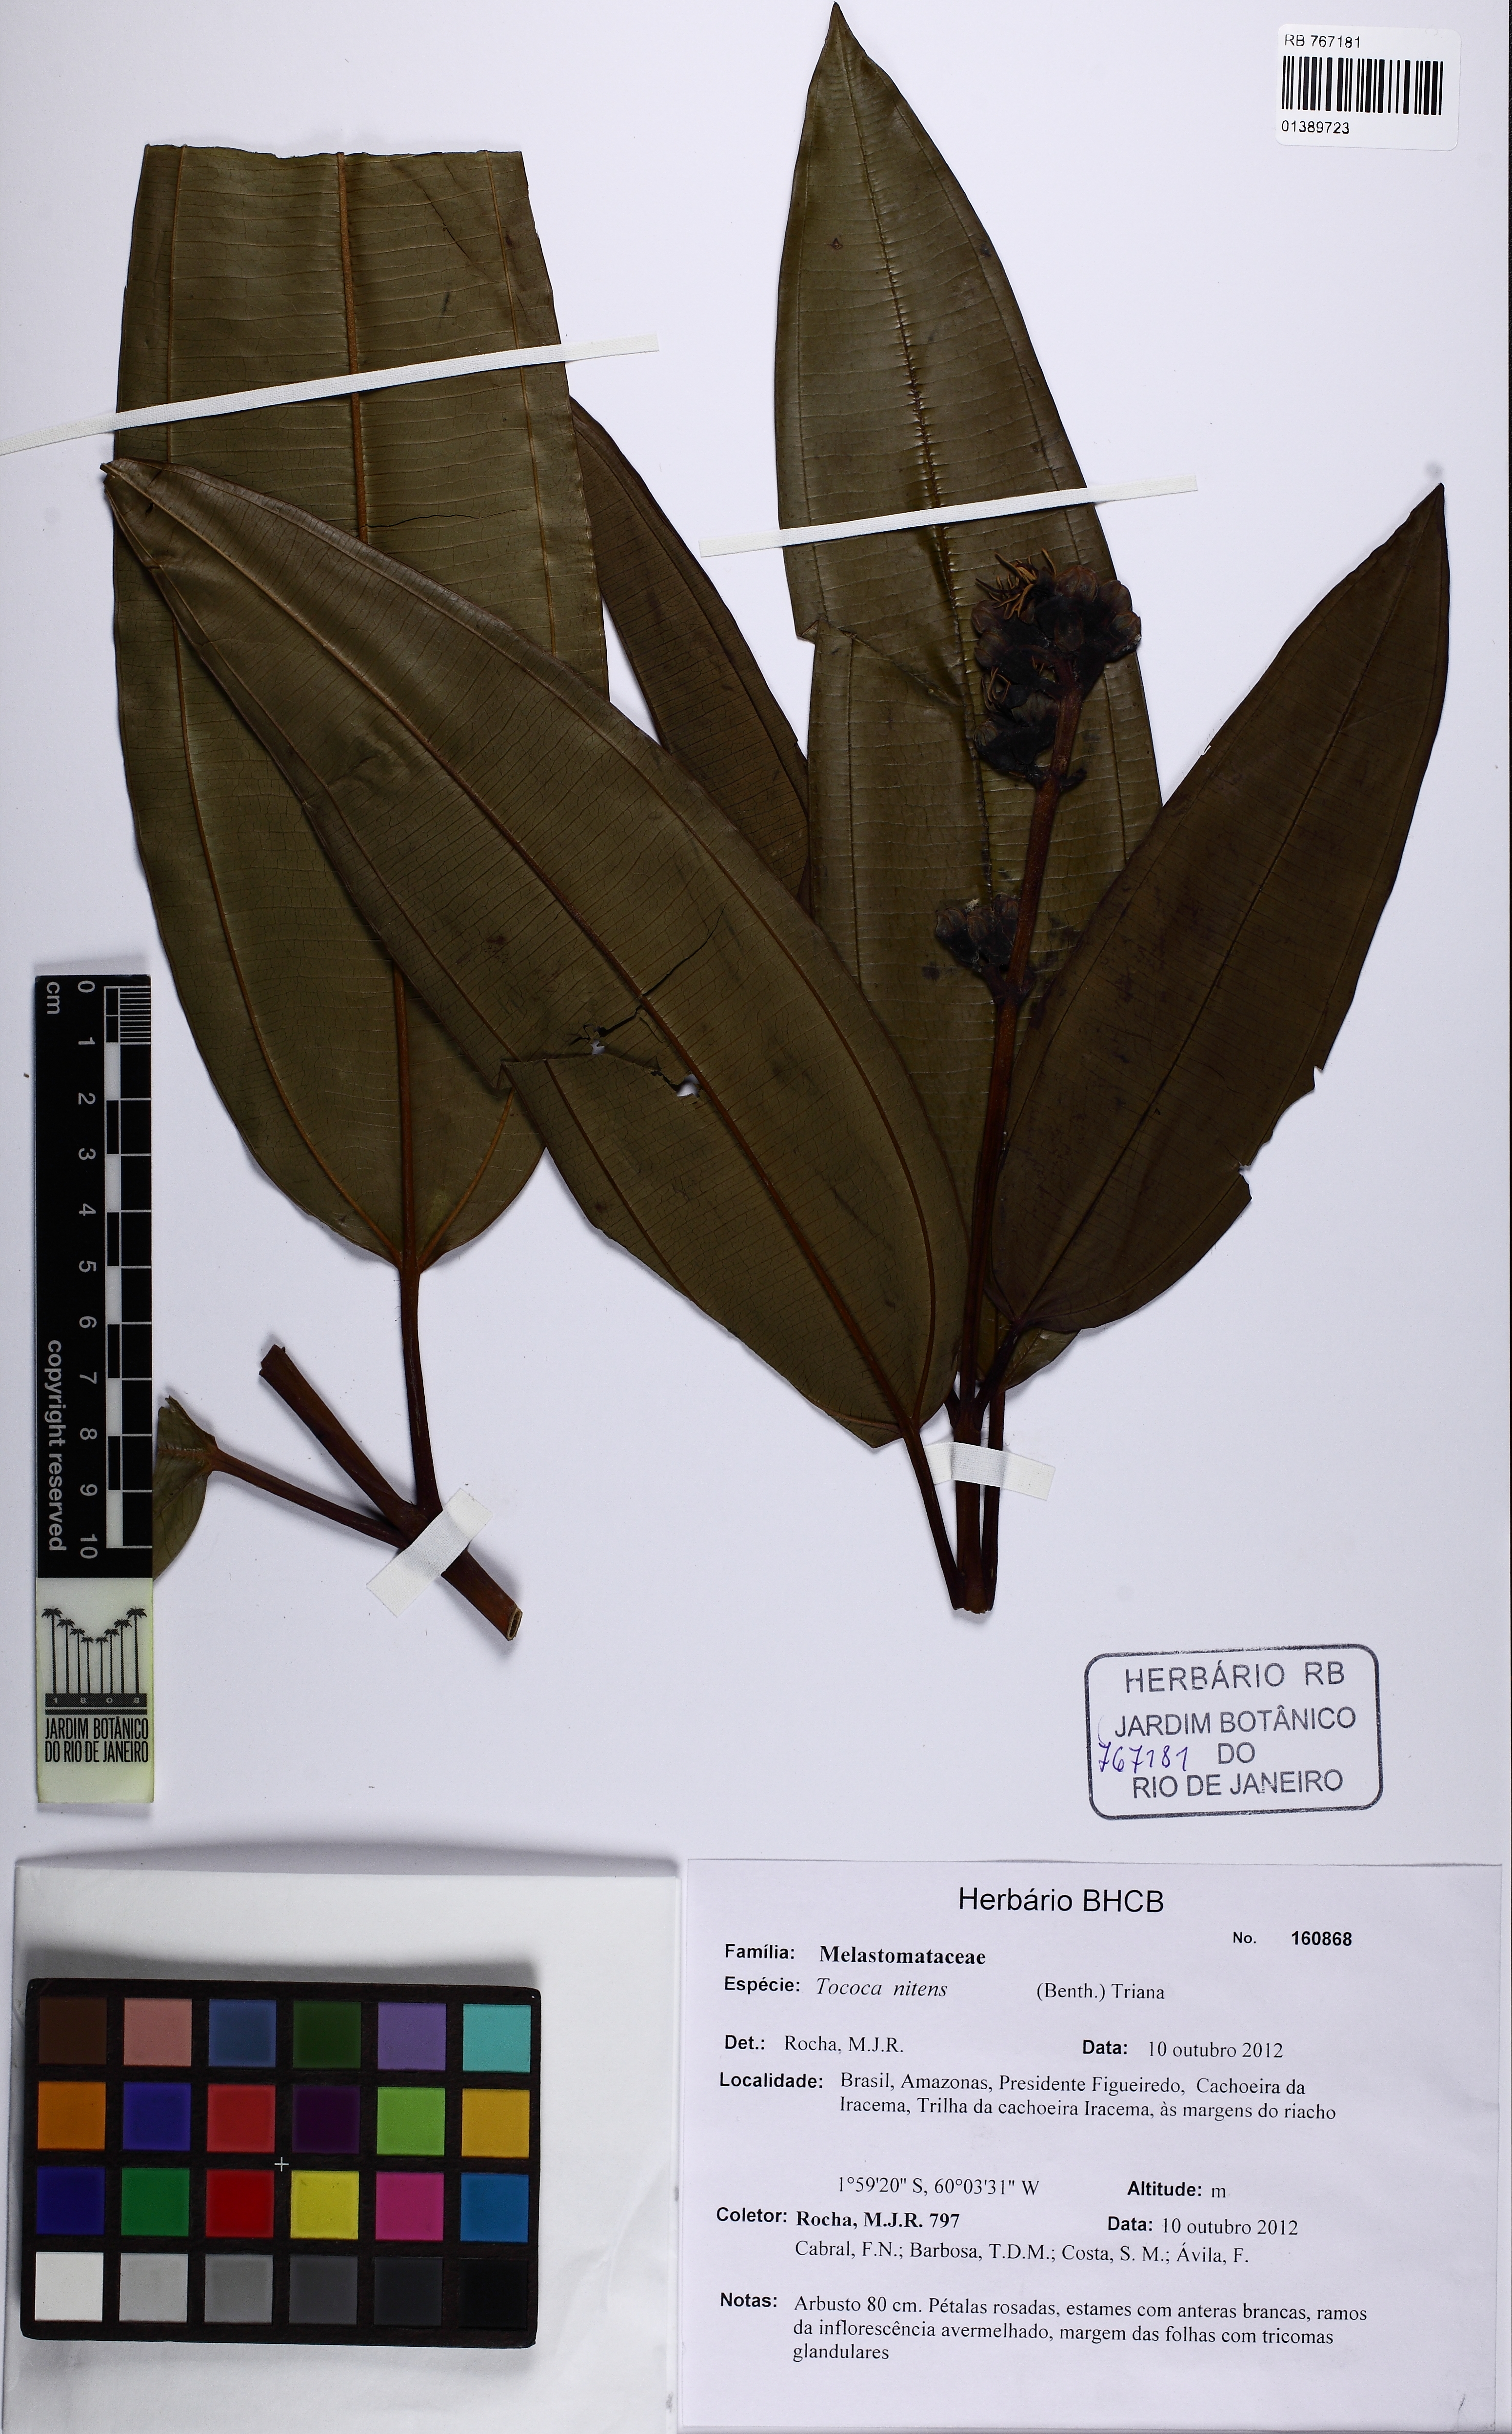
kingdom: Plantae
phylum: Tracheophyta
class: Magnoliopsida
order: Myrtales
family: Melastomataceae
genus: Miconia
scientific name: Miconia nitens
